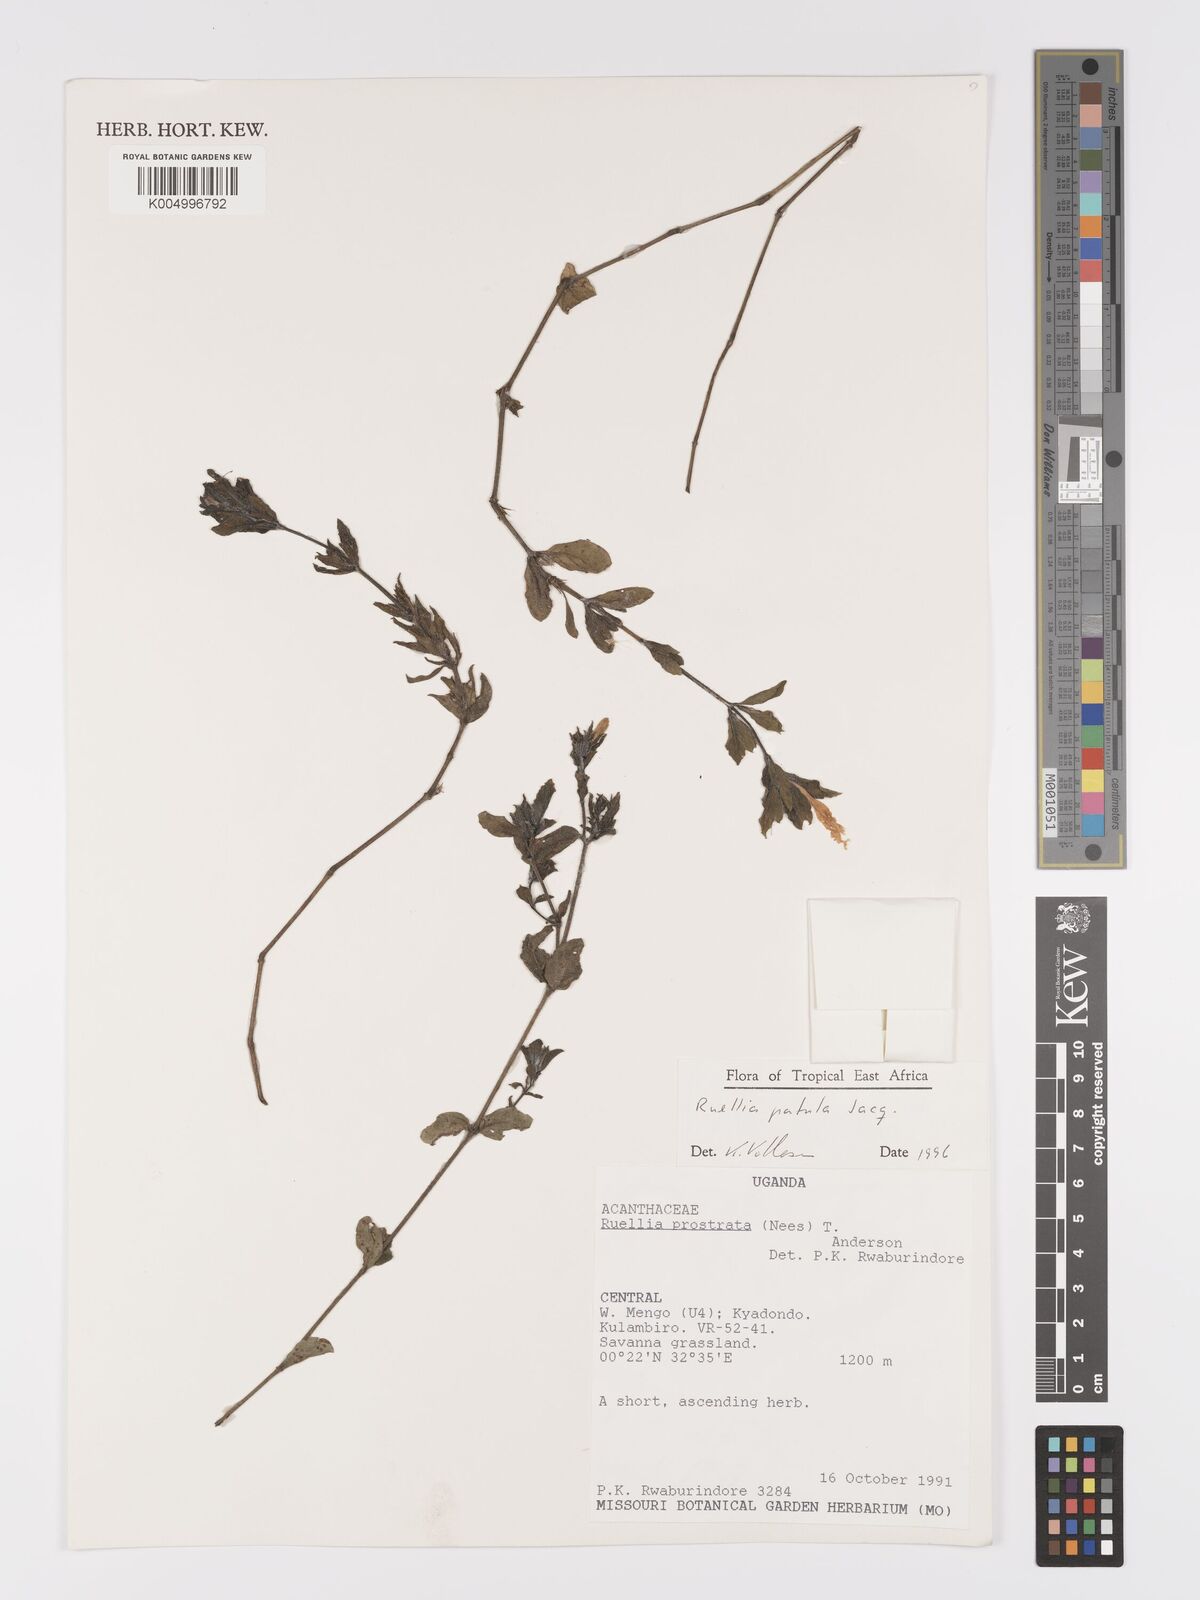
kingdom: Plantae
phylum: Tracheophyta
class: Magnoliopsida
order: Lamiales
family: Acanthaceae
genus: Ruellia
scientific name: Ruellia patula
